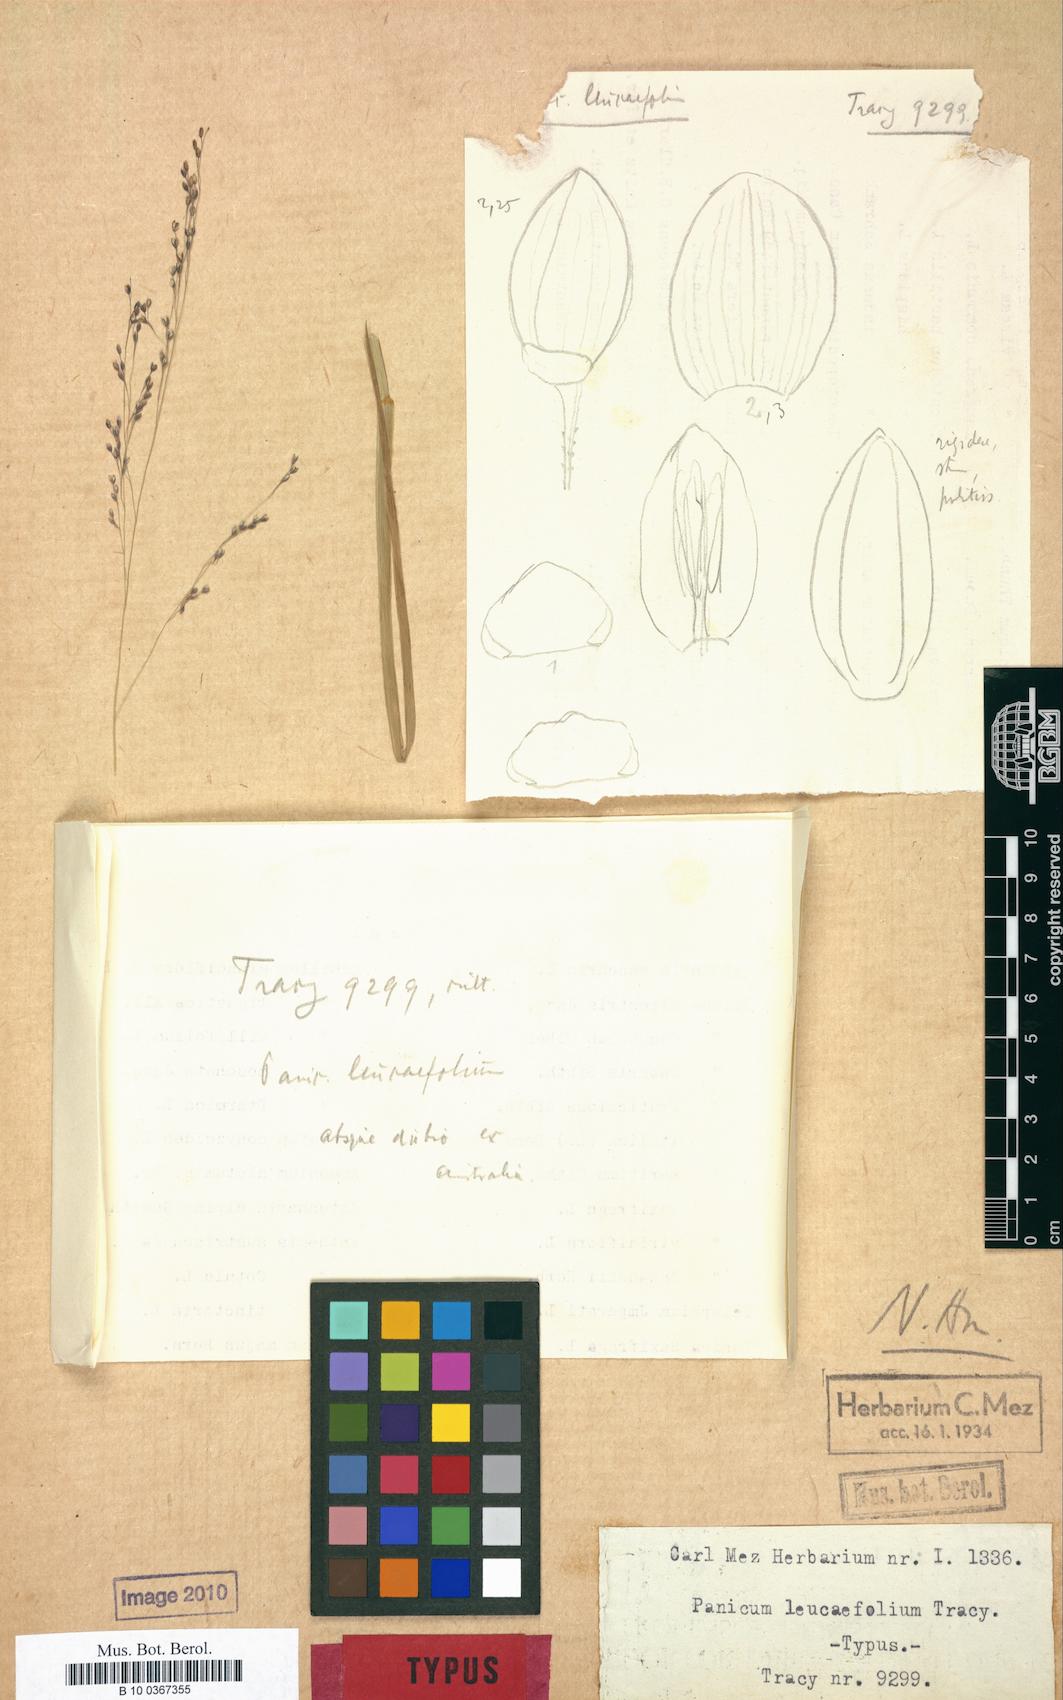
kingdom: Plantae
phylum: Tracheophyta
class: Liliopsida
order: Poales
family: Poaceae
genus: Panicum
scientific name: Panicum
